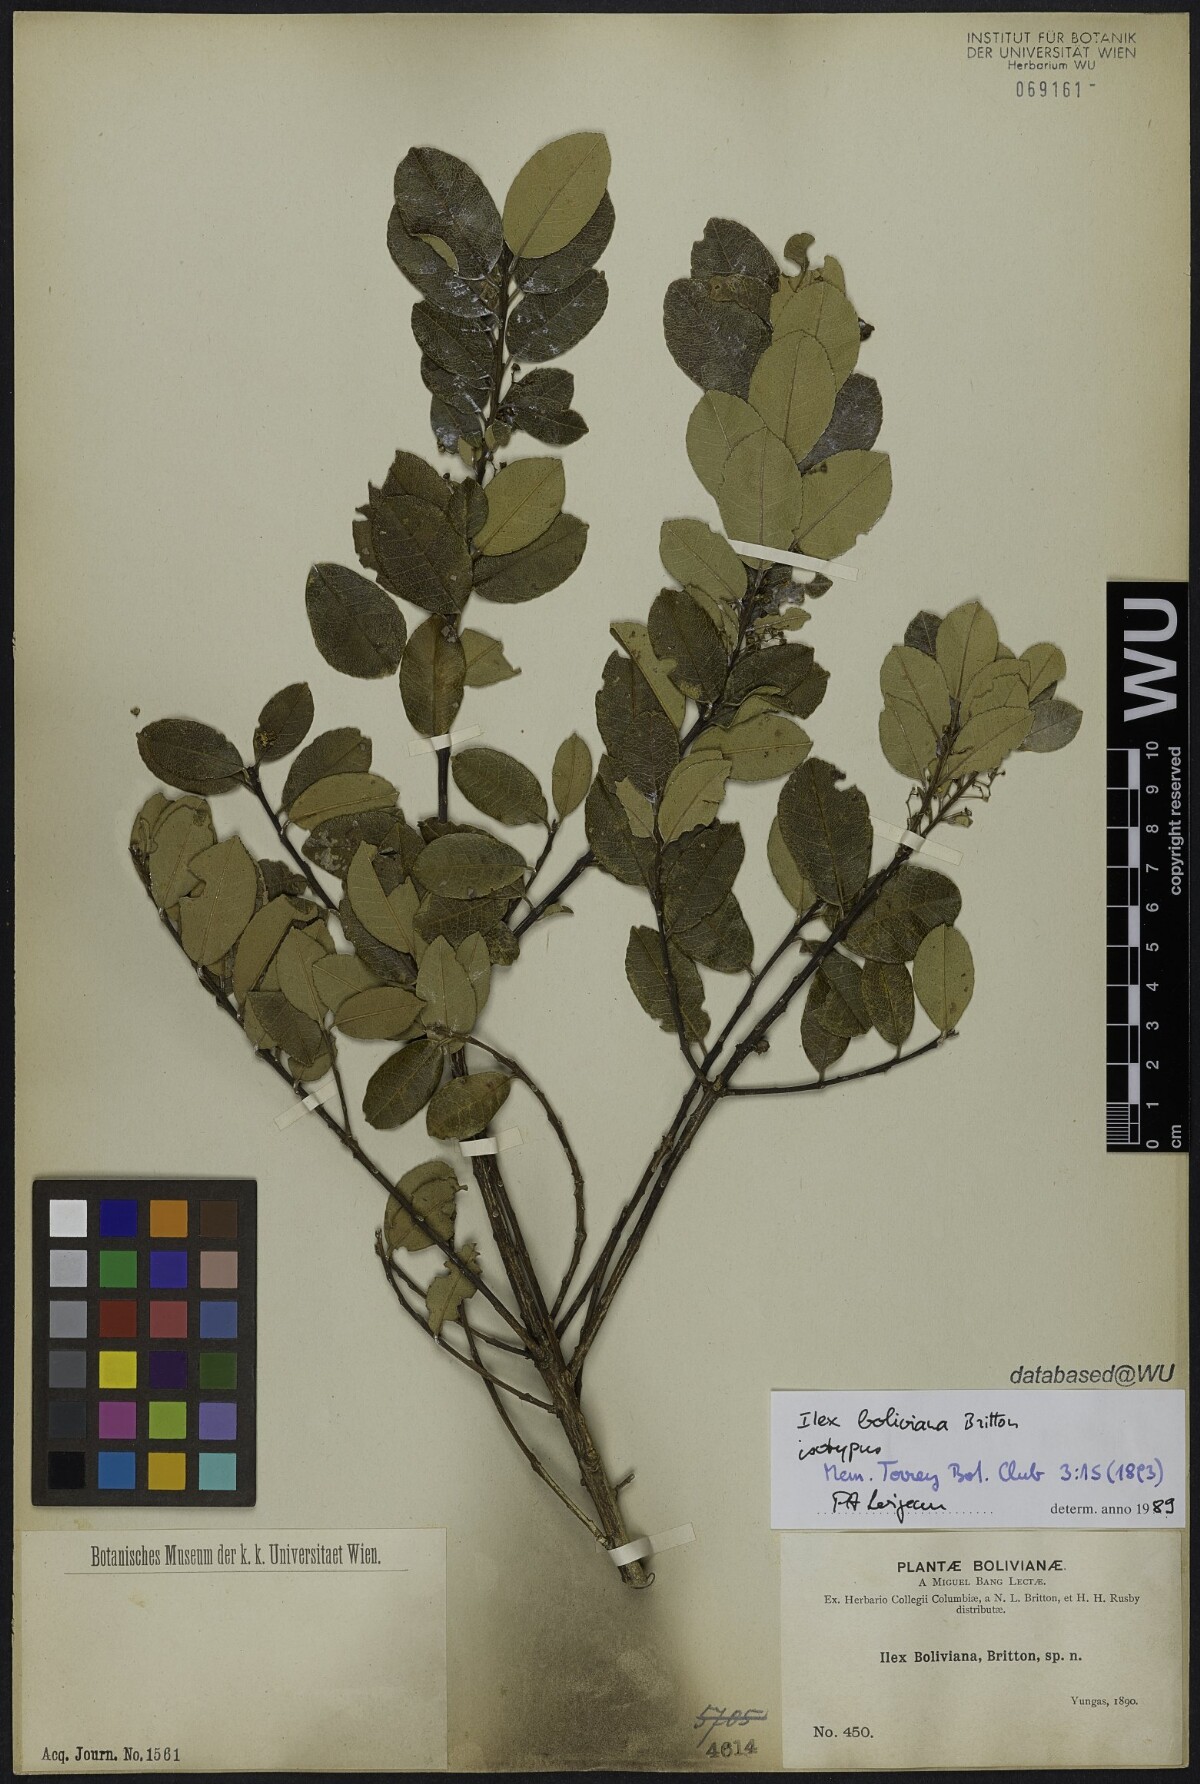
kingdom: Plantae
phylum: Tracheophyta
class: Magnoliopsida
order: Aquifoliales
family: Aquifoliaceae
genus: Ilex
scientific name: Ilex boliviana
